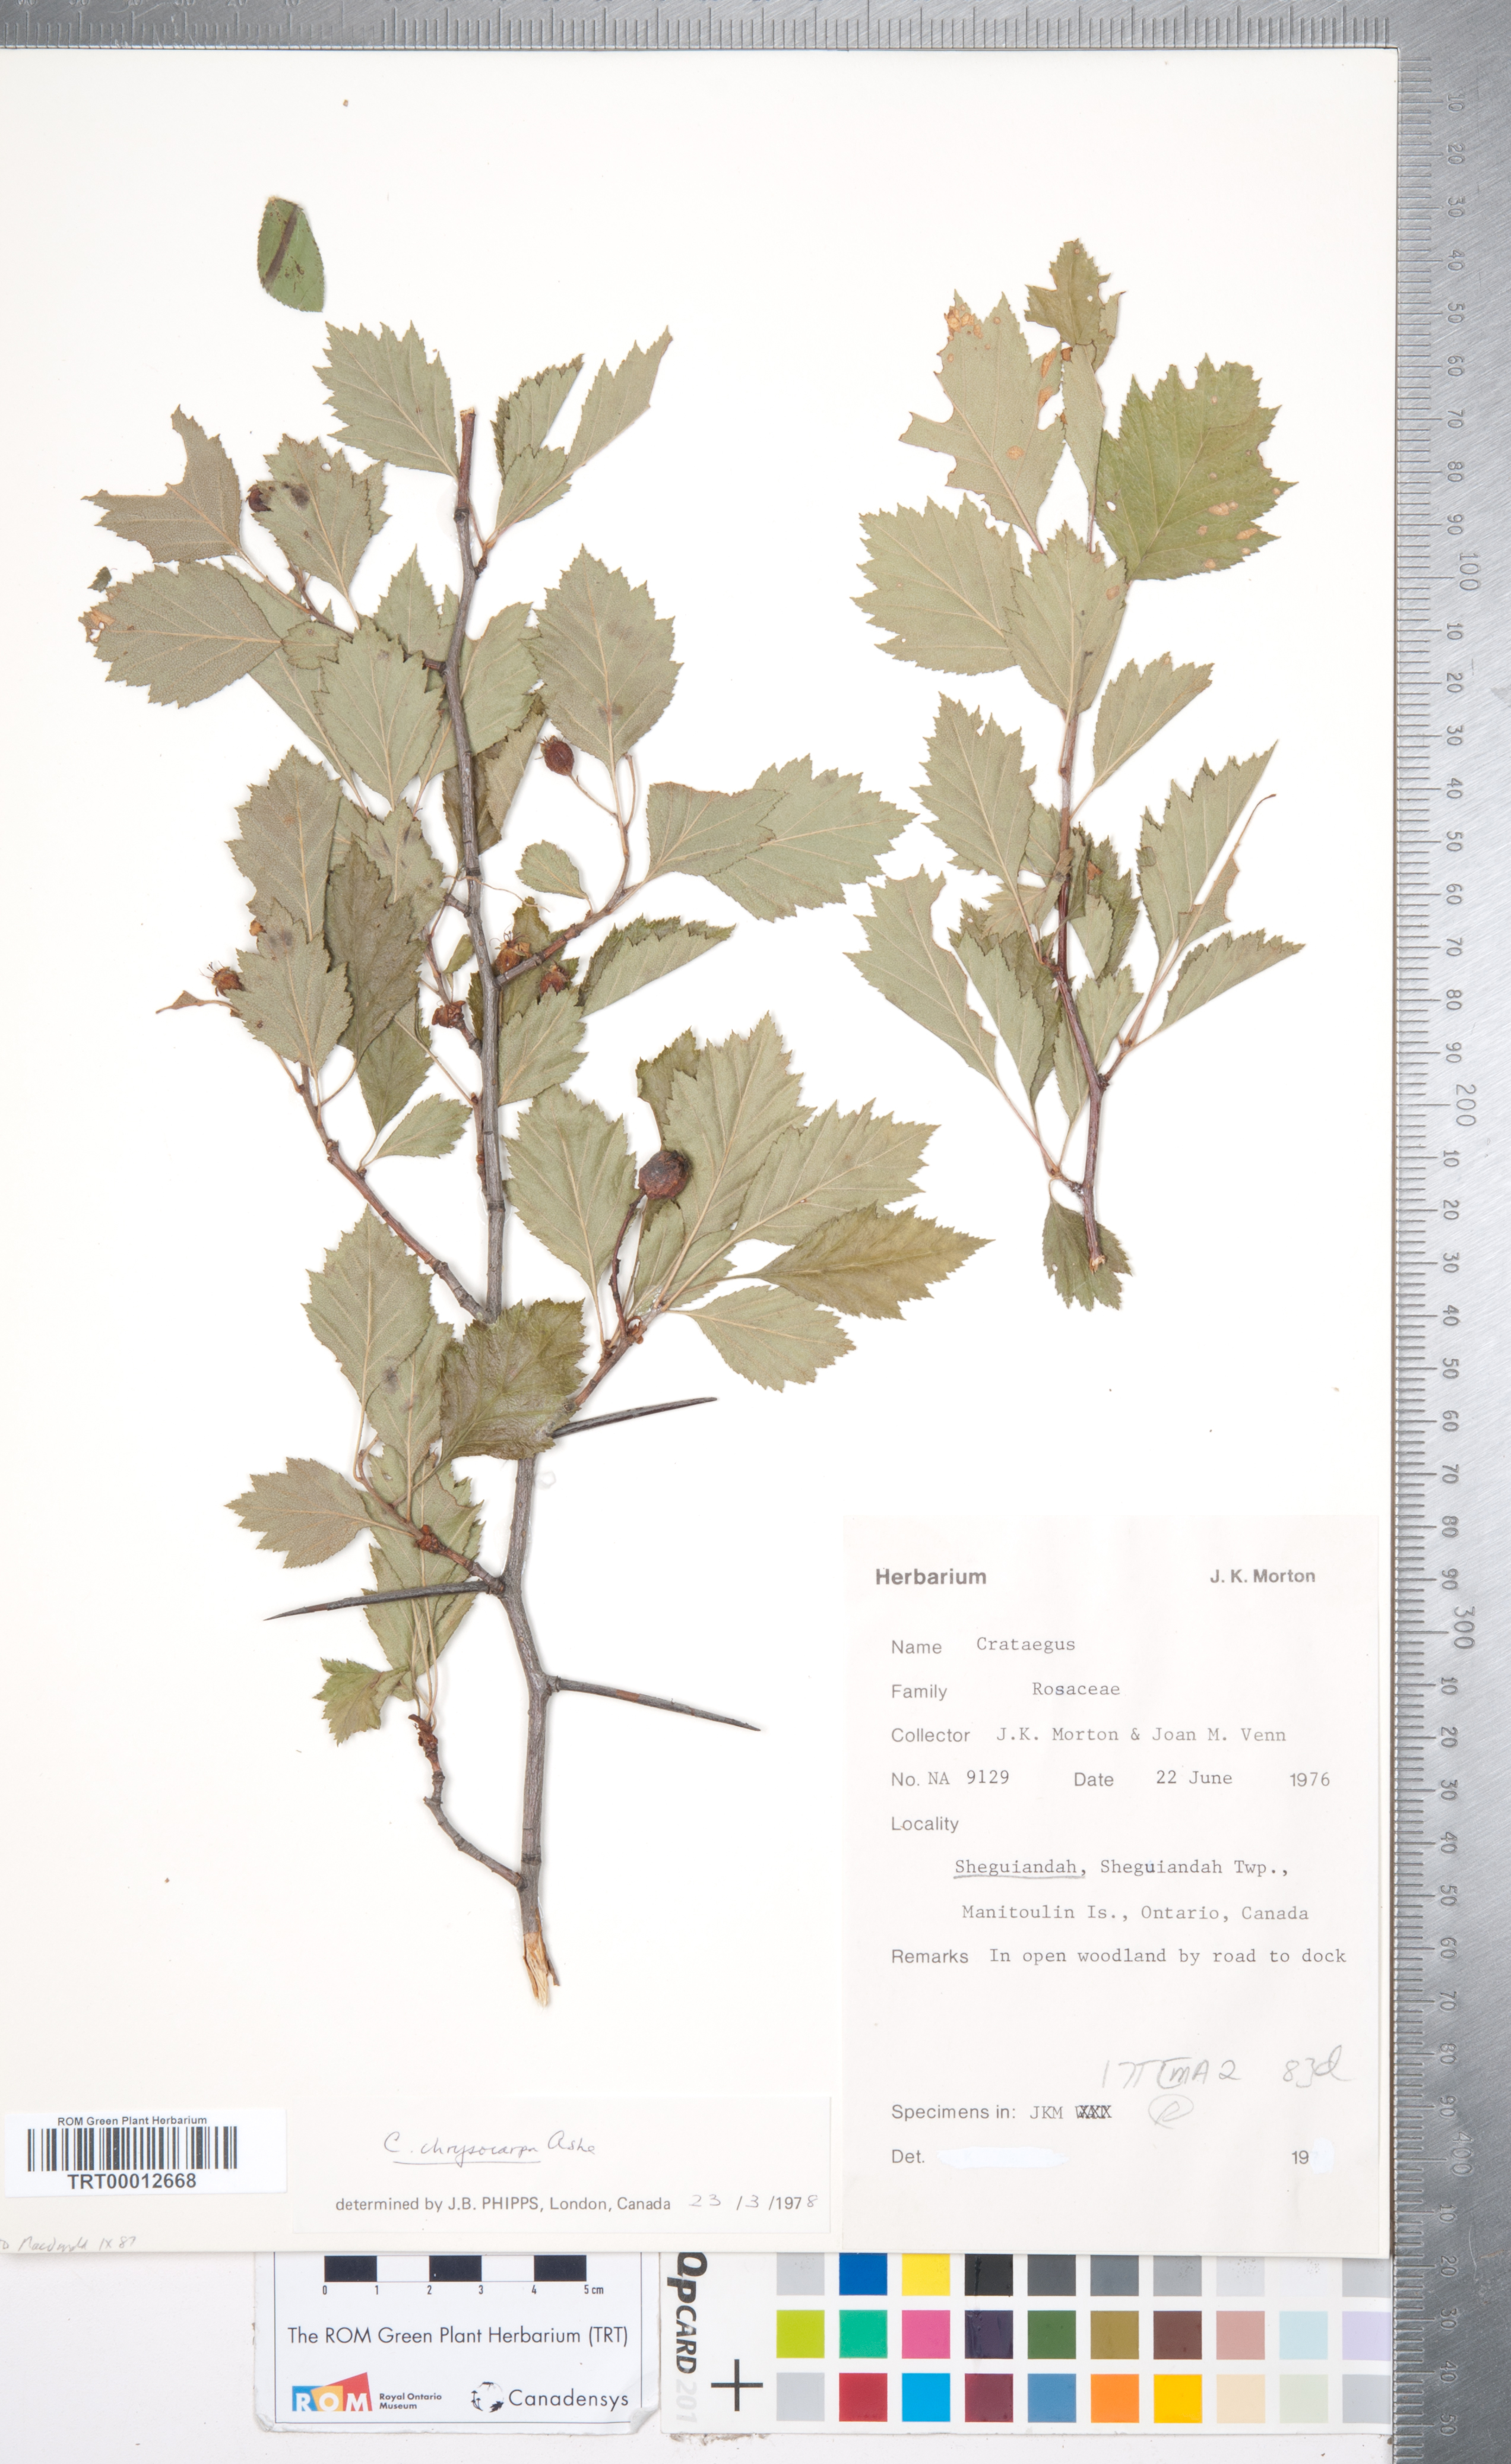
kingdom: Plantae
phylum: Tracheophyta
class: Magnoliopsida
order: Rosales
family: Rosaceae
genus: Crataegus
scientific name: Crataegus chrysocarpa
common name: Fire-berry hawthorn
